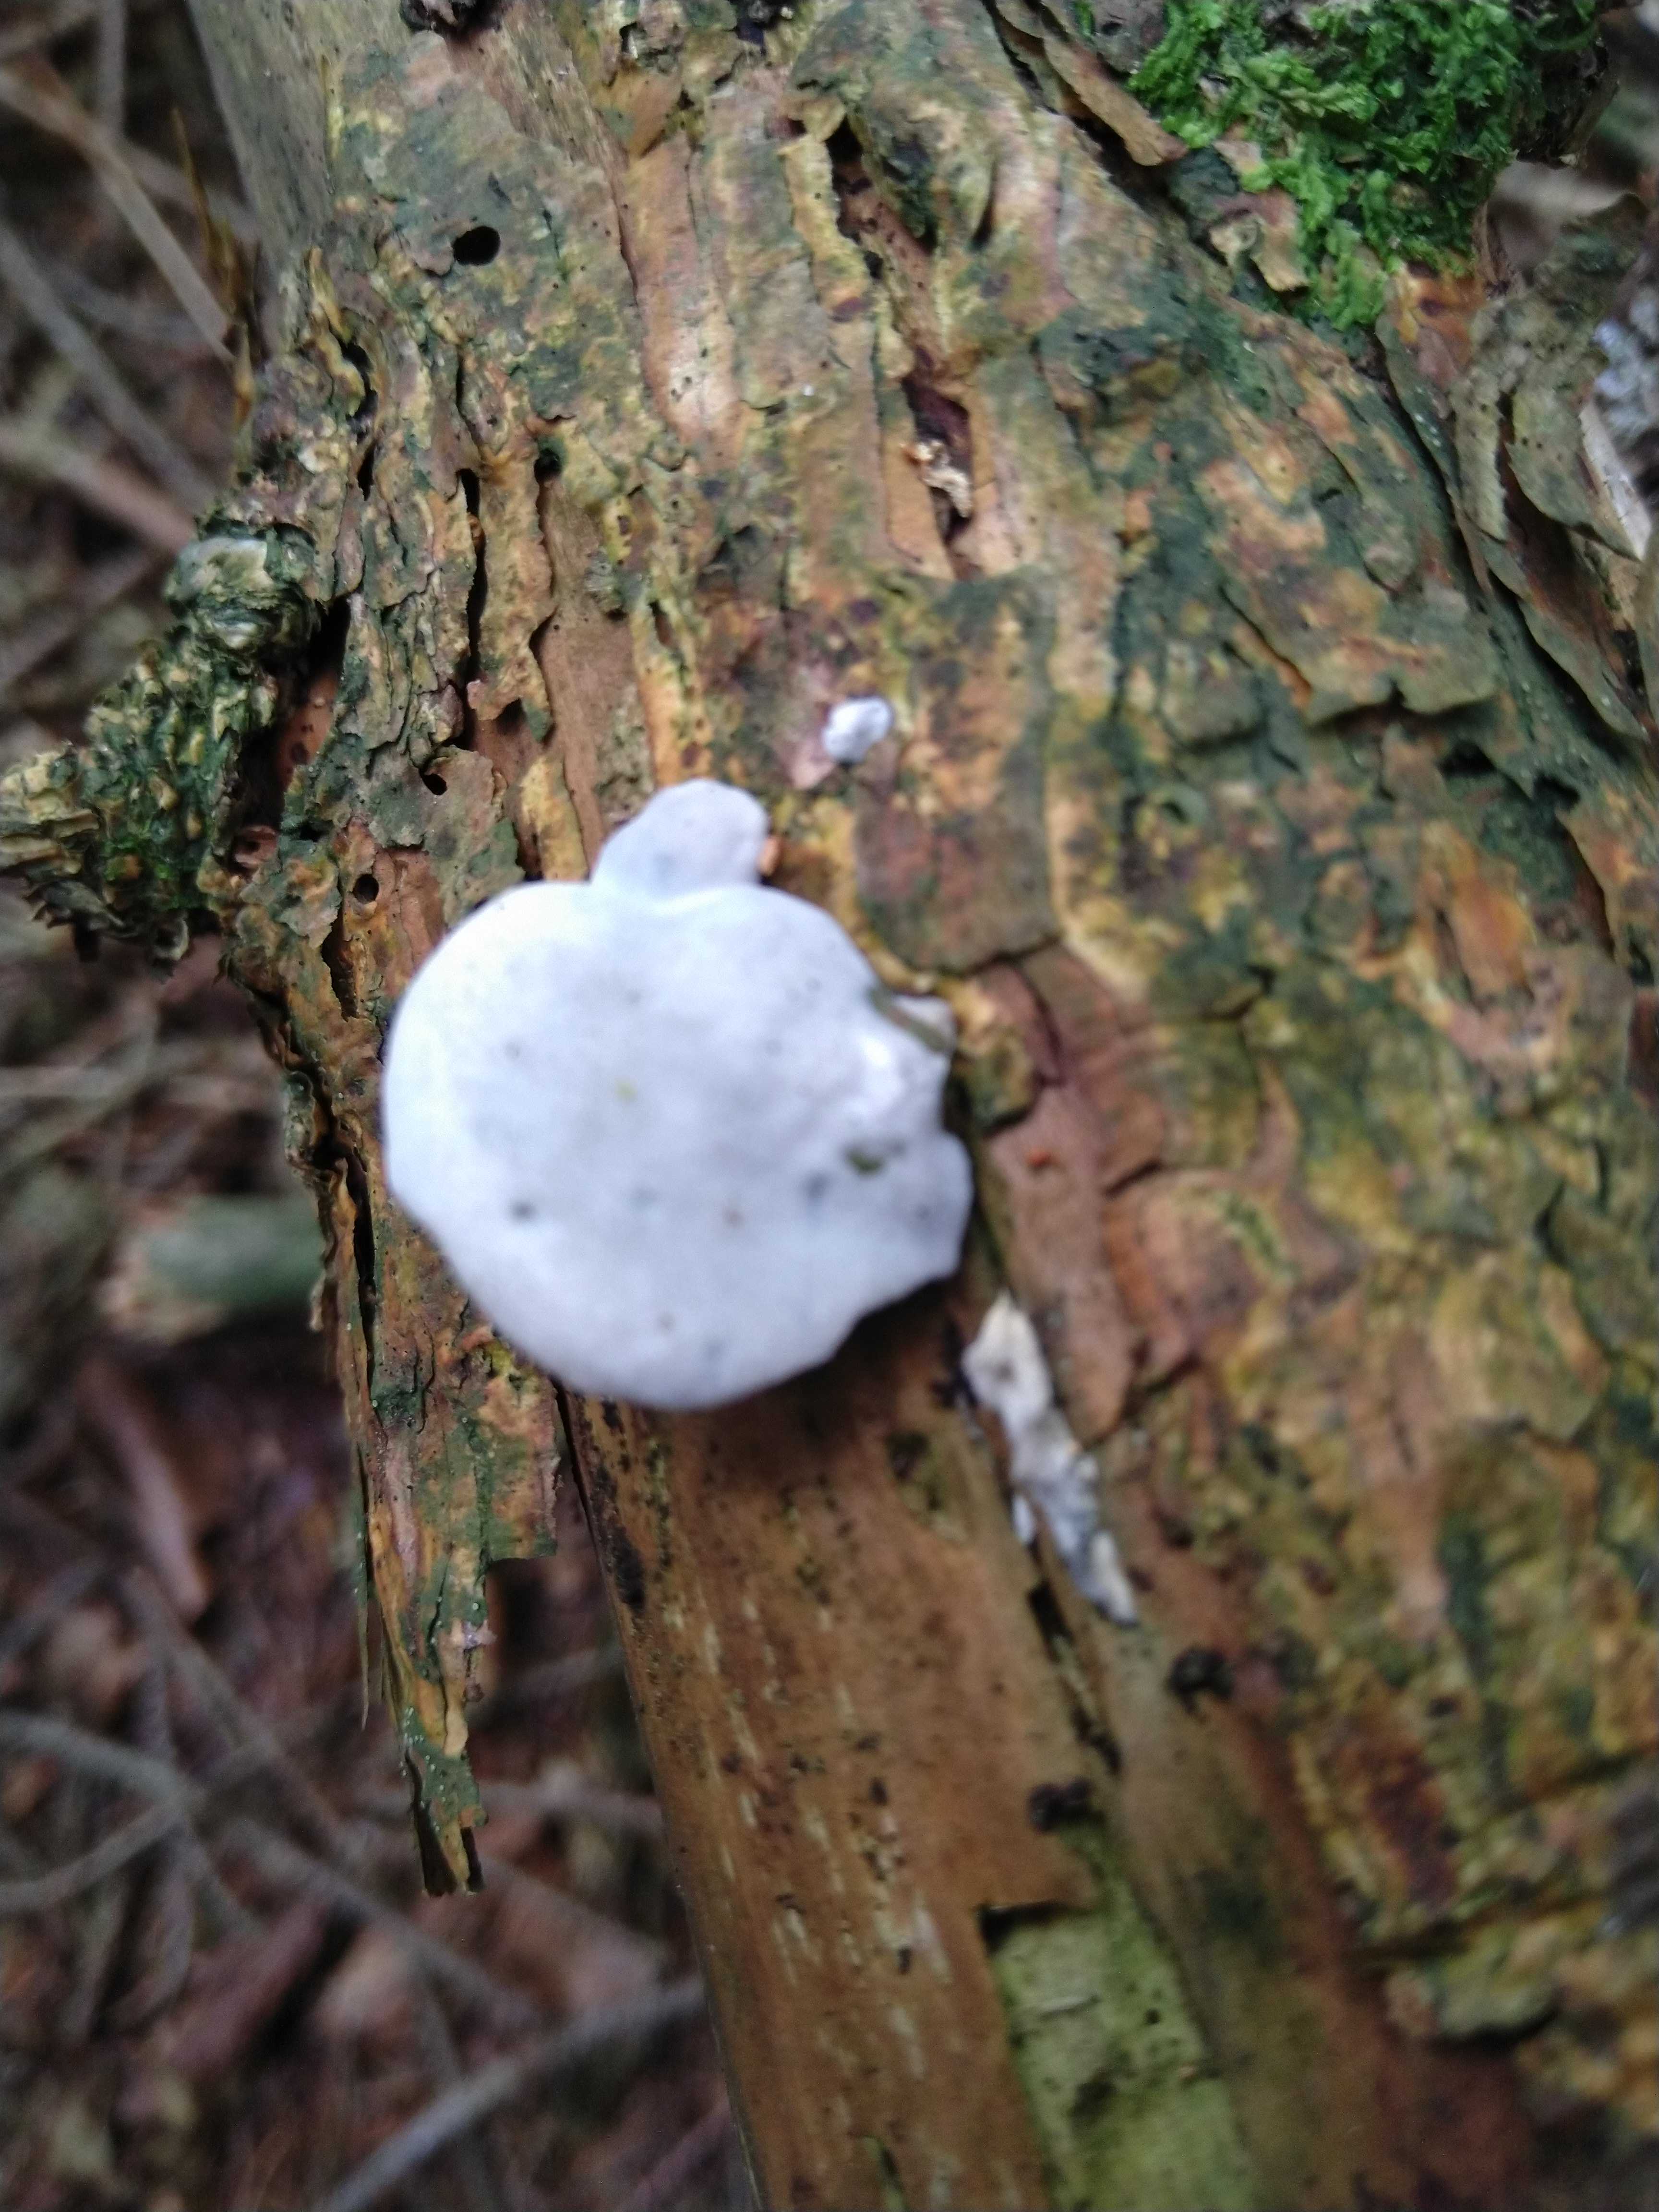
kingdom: Fungi
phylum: Basidiomycota
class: Agaricomycetes
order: Polyporales
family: Polyporaceae
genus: Cyanosporus
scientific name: Cyanosporus caesius
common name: blålig kødporesvamp
